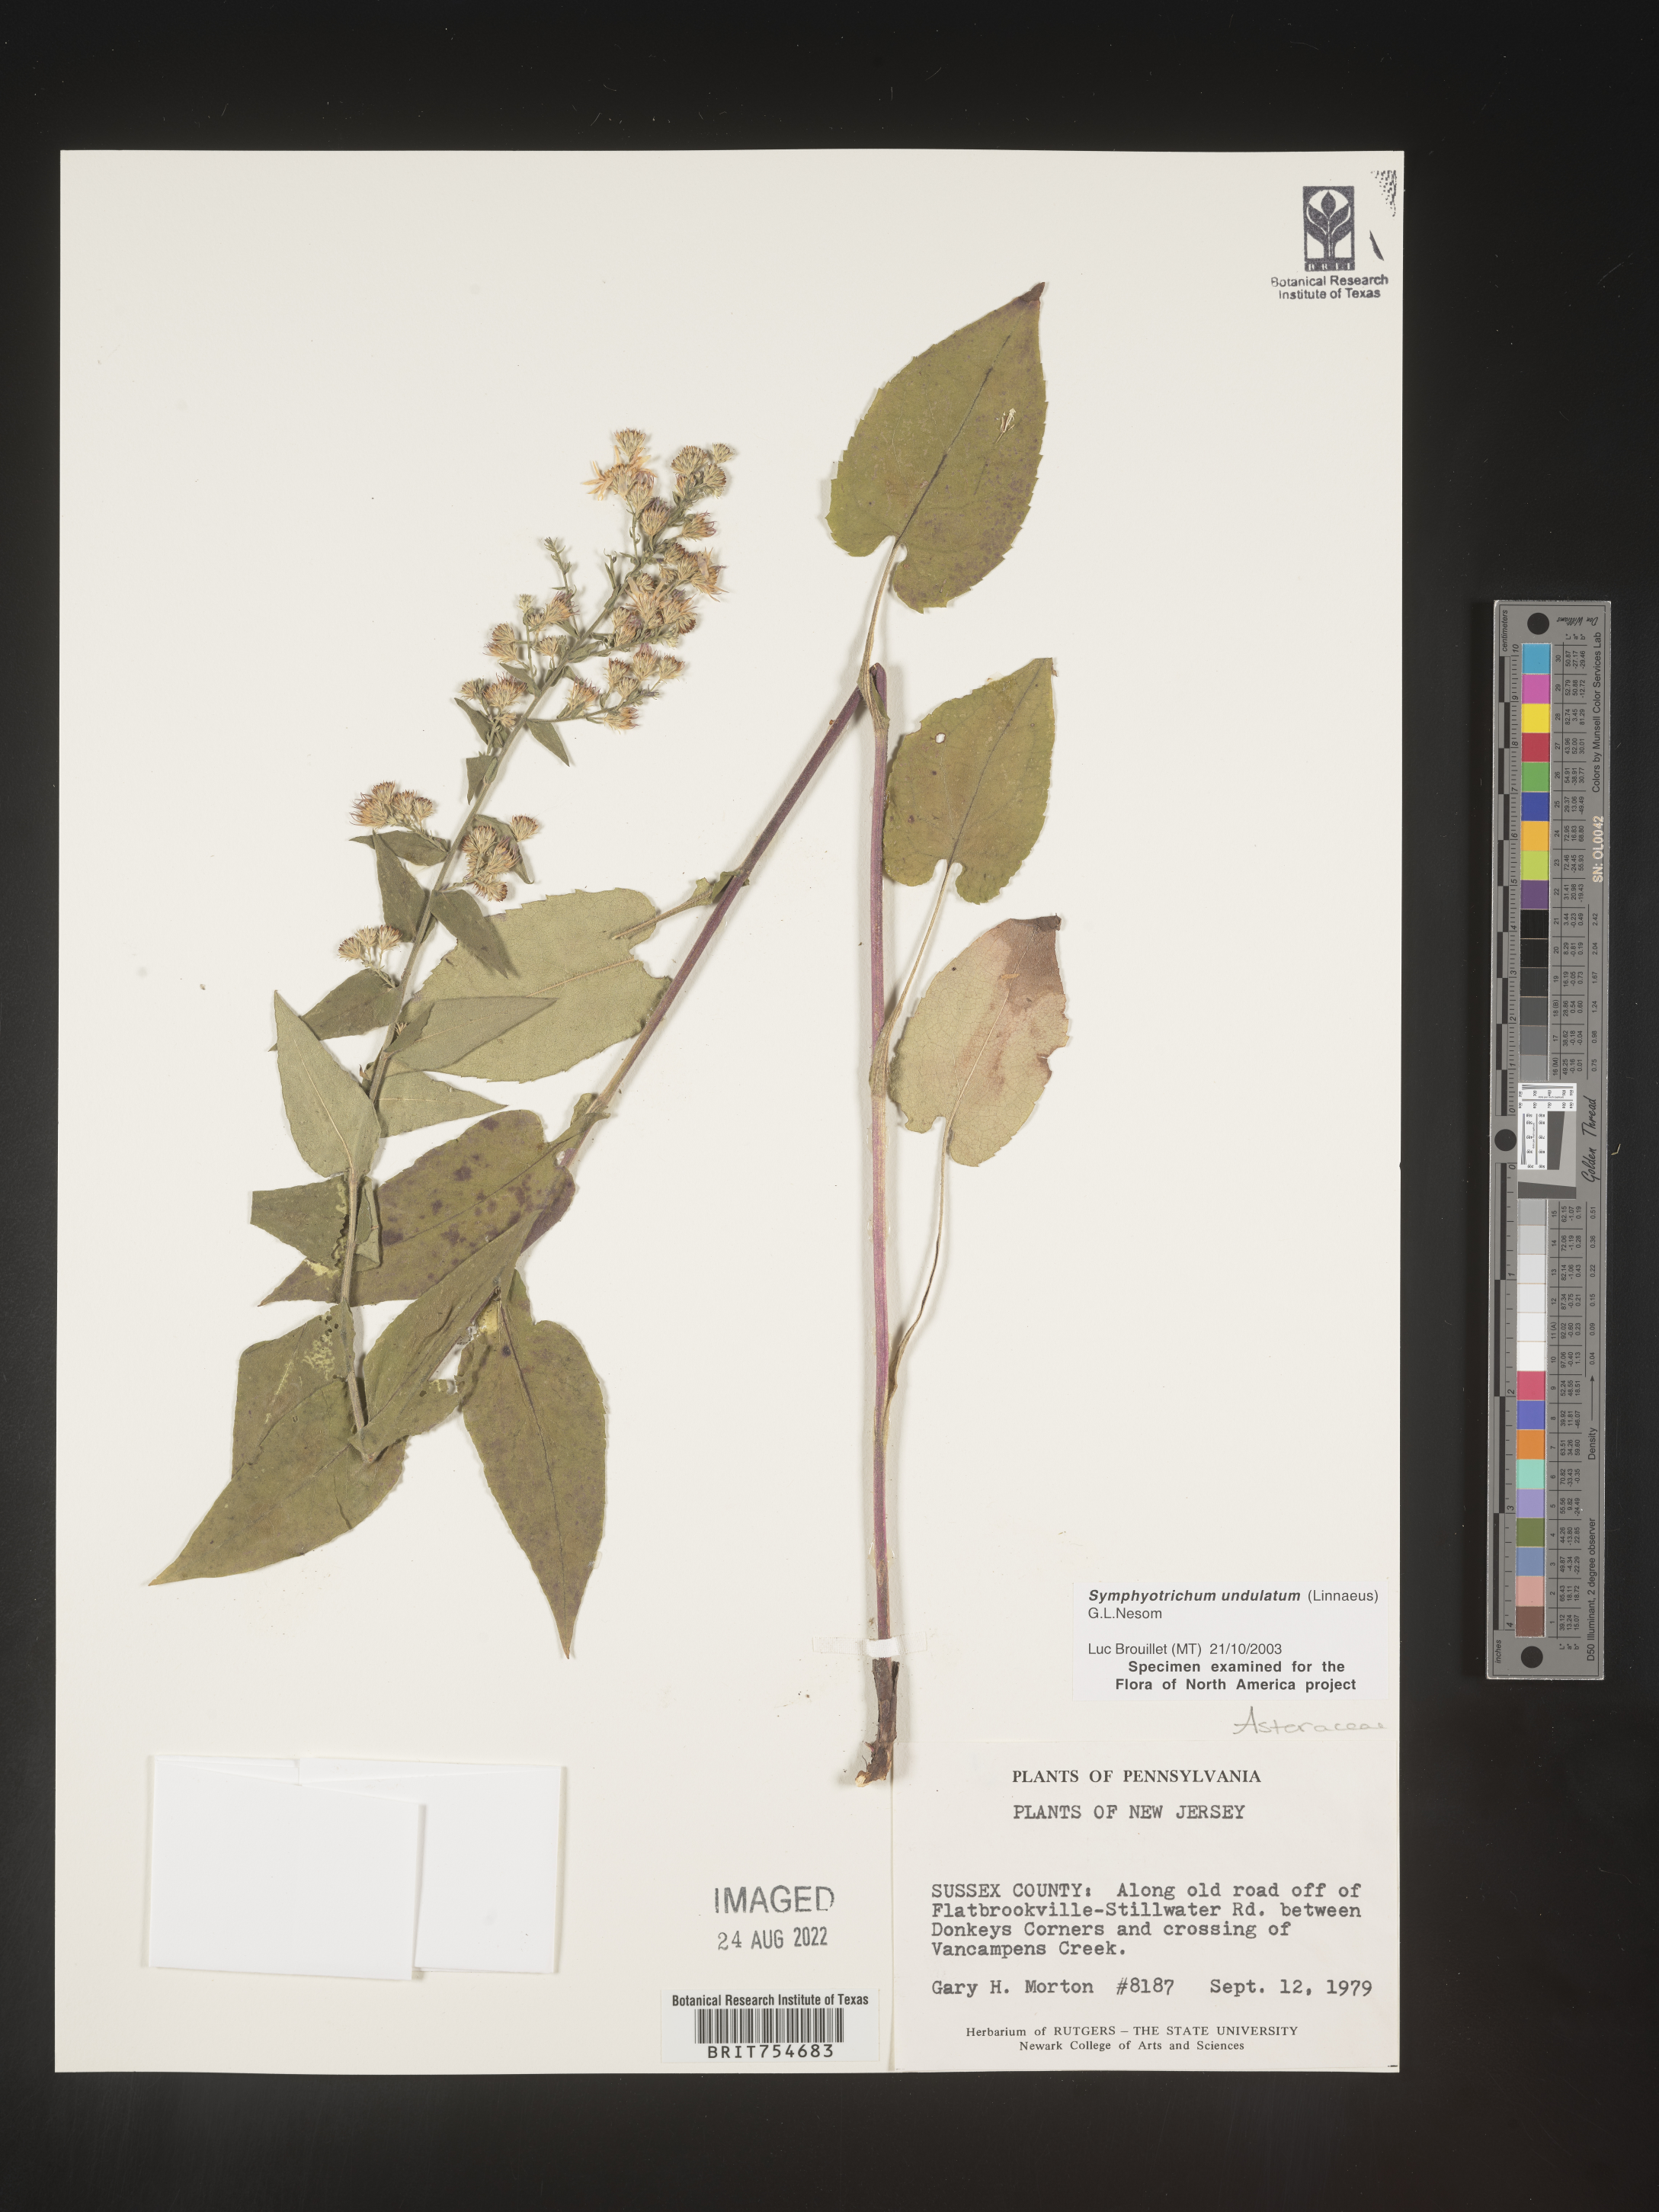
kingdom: Plantae
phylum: Tracheophyta
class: Magnoliopsida
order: Asterales
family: Asteraceae
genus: Symphyotrichum
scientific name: Symphyotrichum undulatum
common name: Clasping heart-leaf aster
